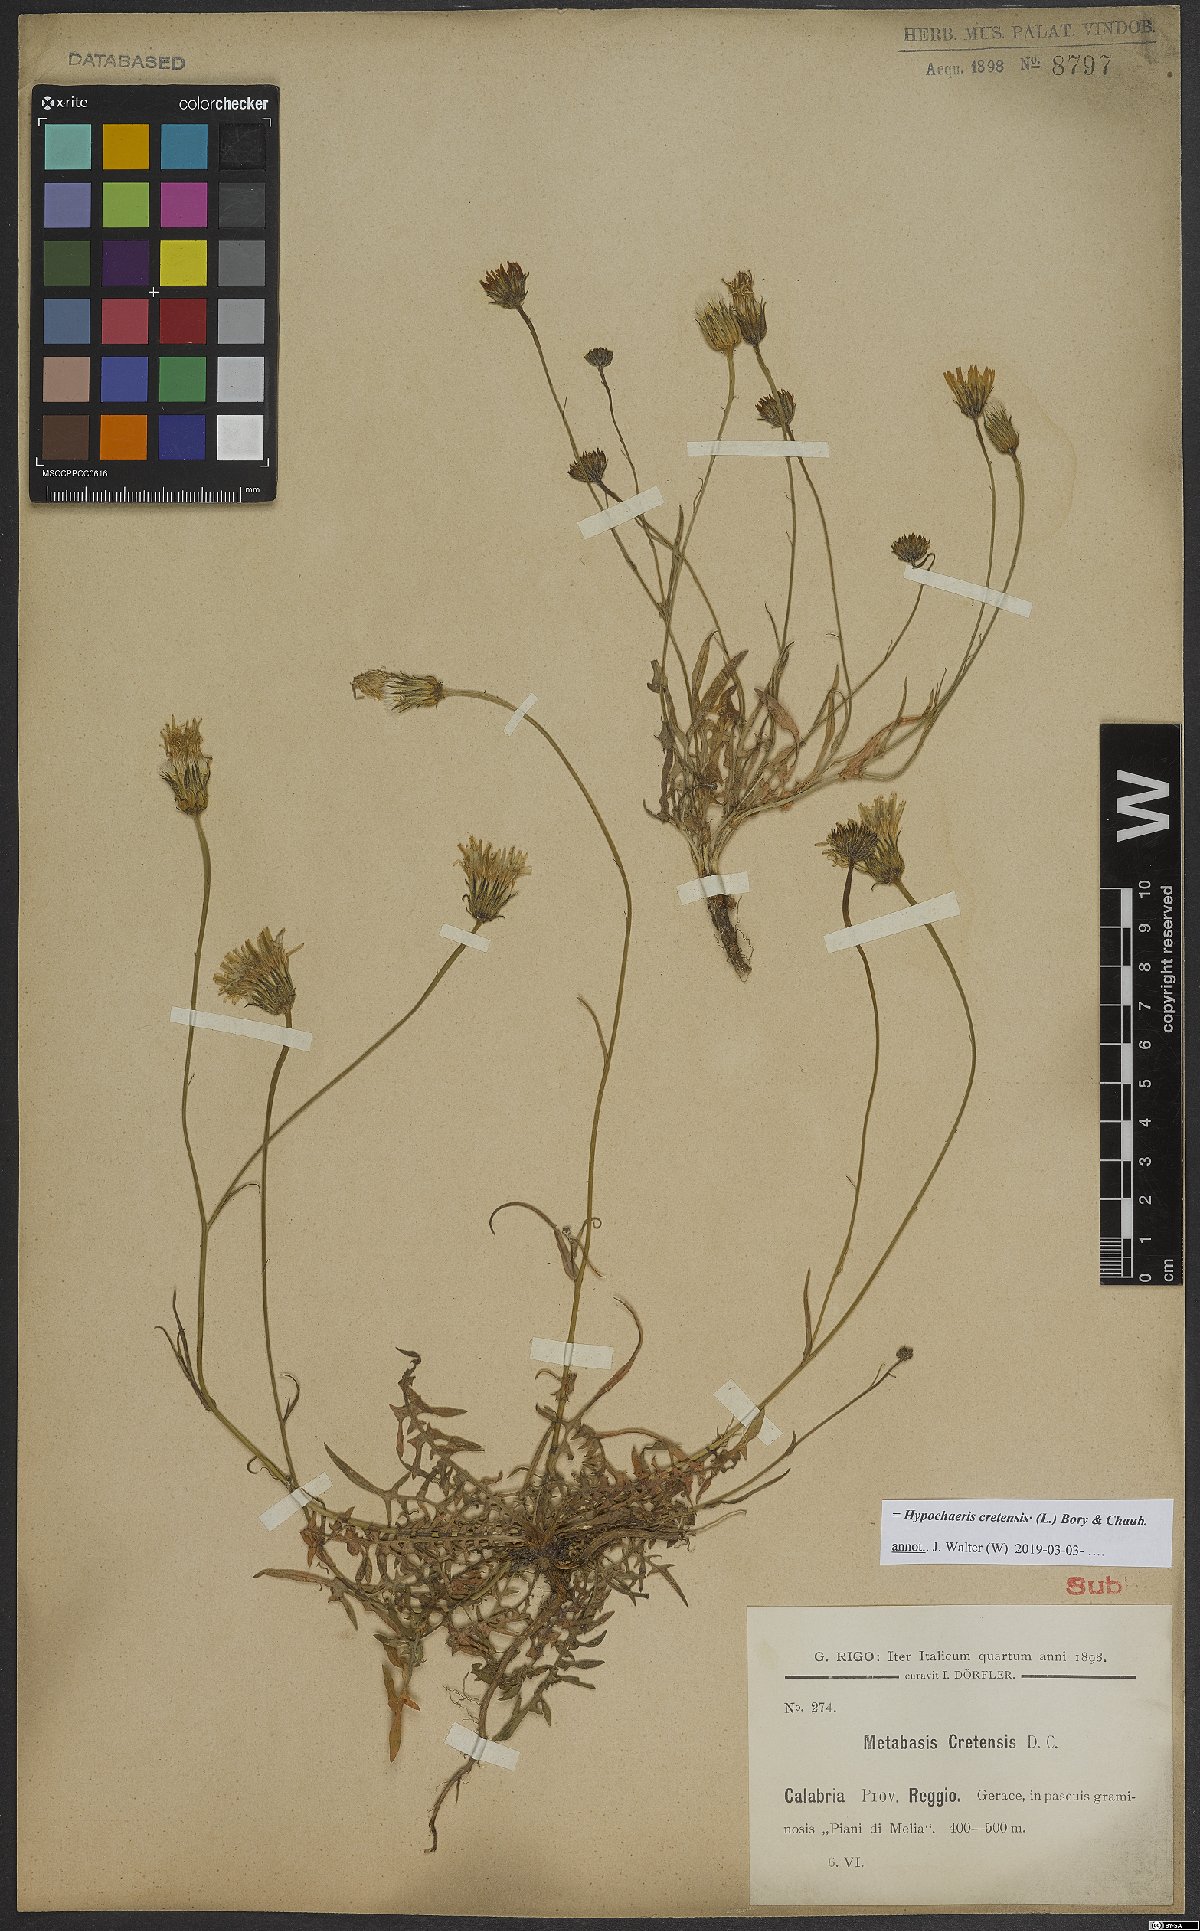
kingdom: Plantae
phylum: Tracheophyta
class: Magnoliopsida
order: Asterales
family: Asteraceae
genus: Hypochaeris
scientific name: Hypochaeris cretensis
